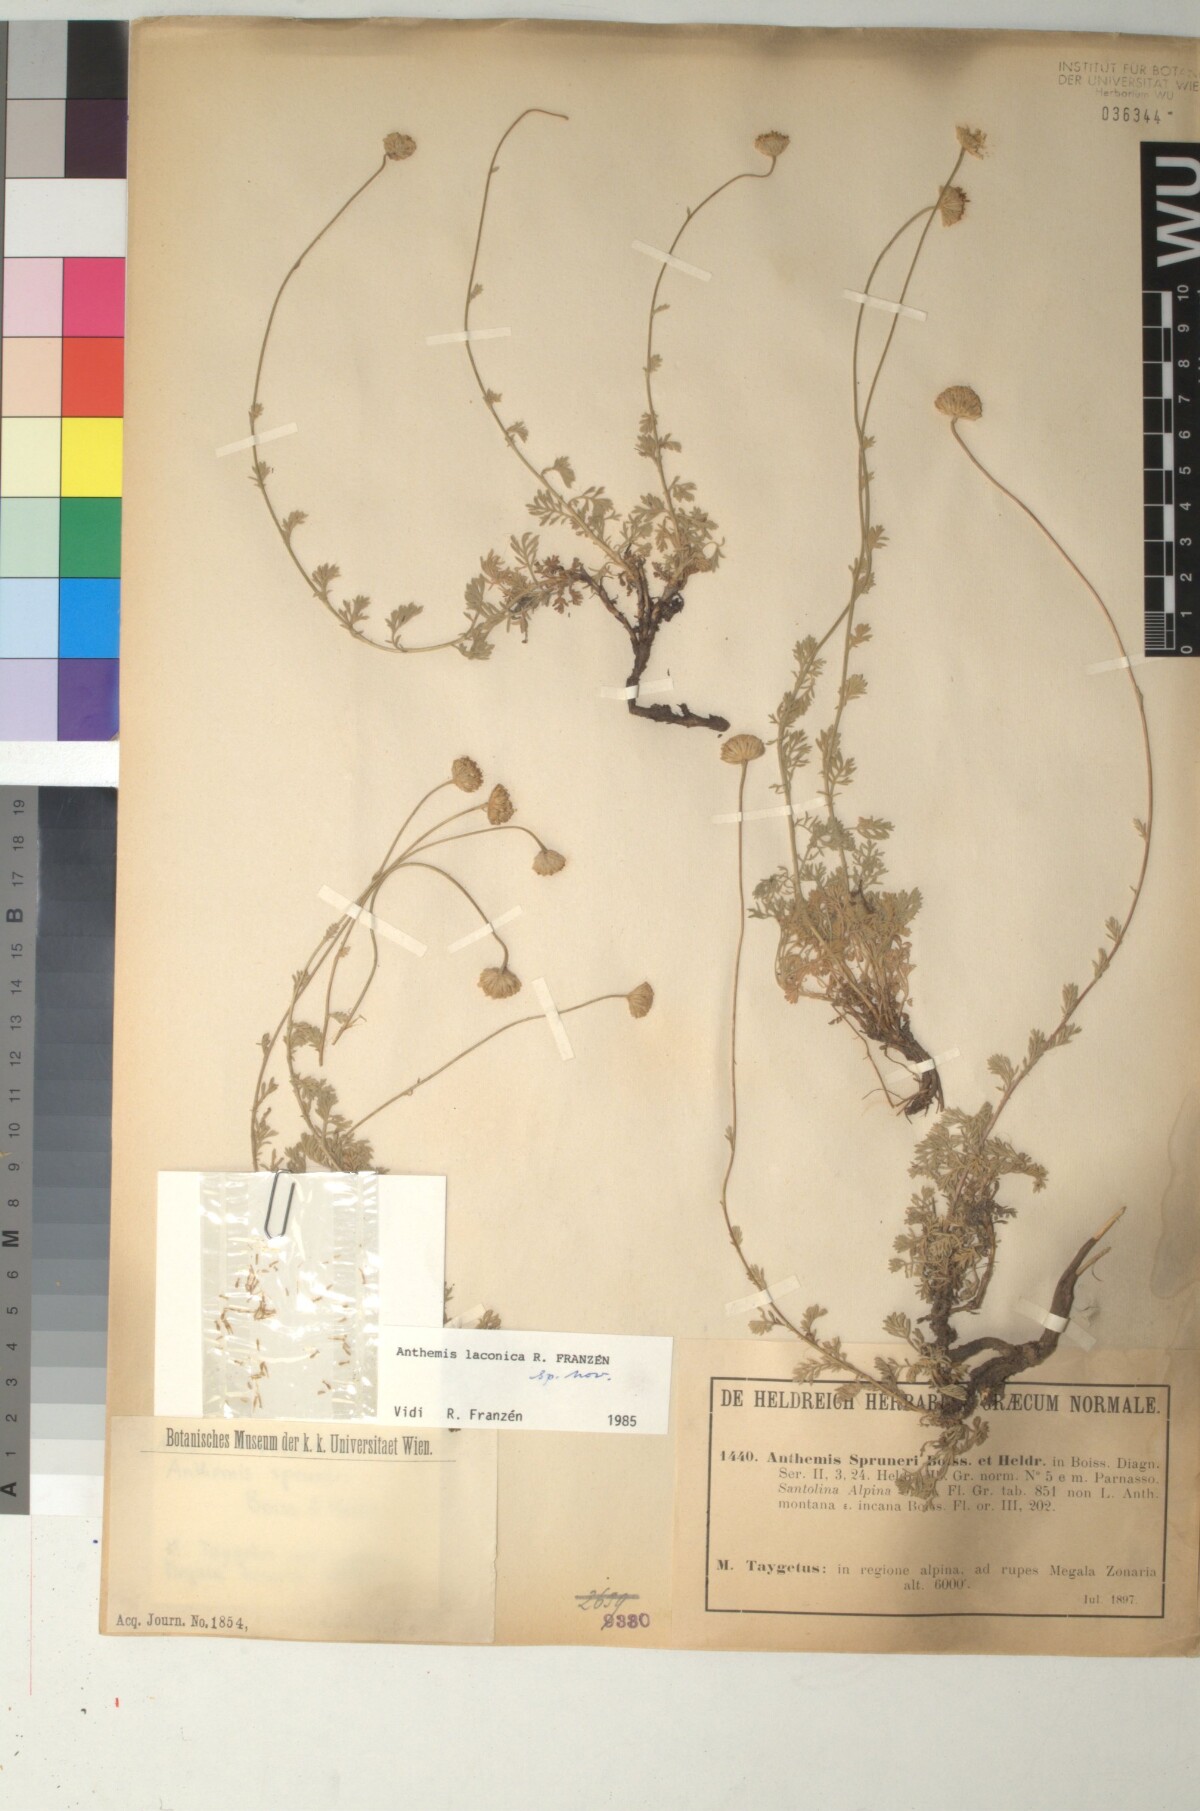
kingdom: Plantae
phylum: Tracheophyta
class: Magnoliopsida
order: Asterales
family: Asteraceae
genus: Anthemis
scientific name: Anthemis laconica
